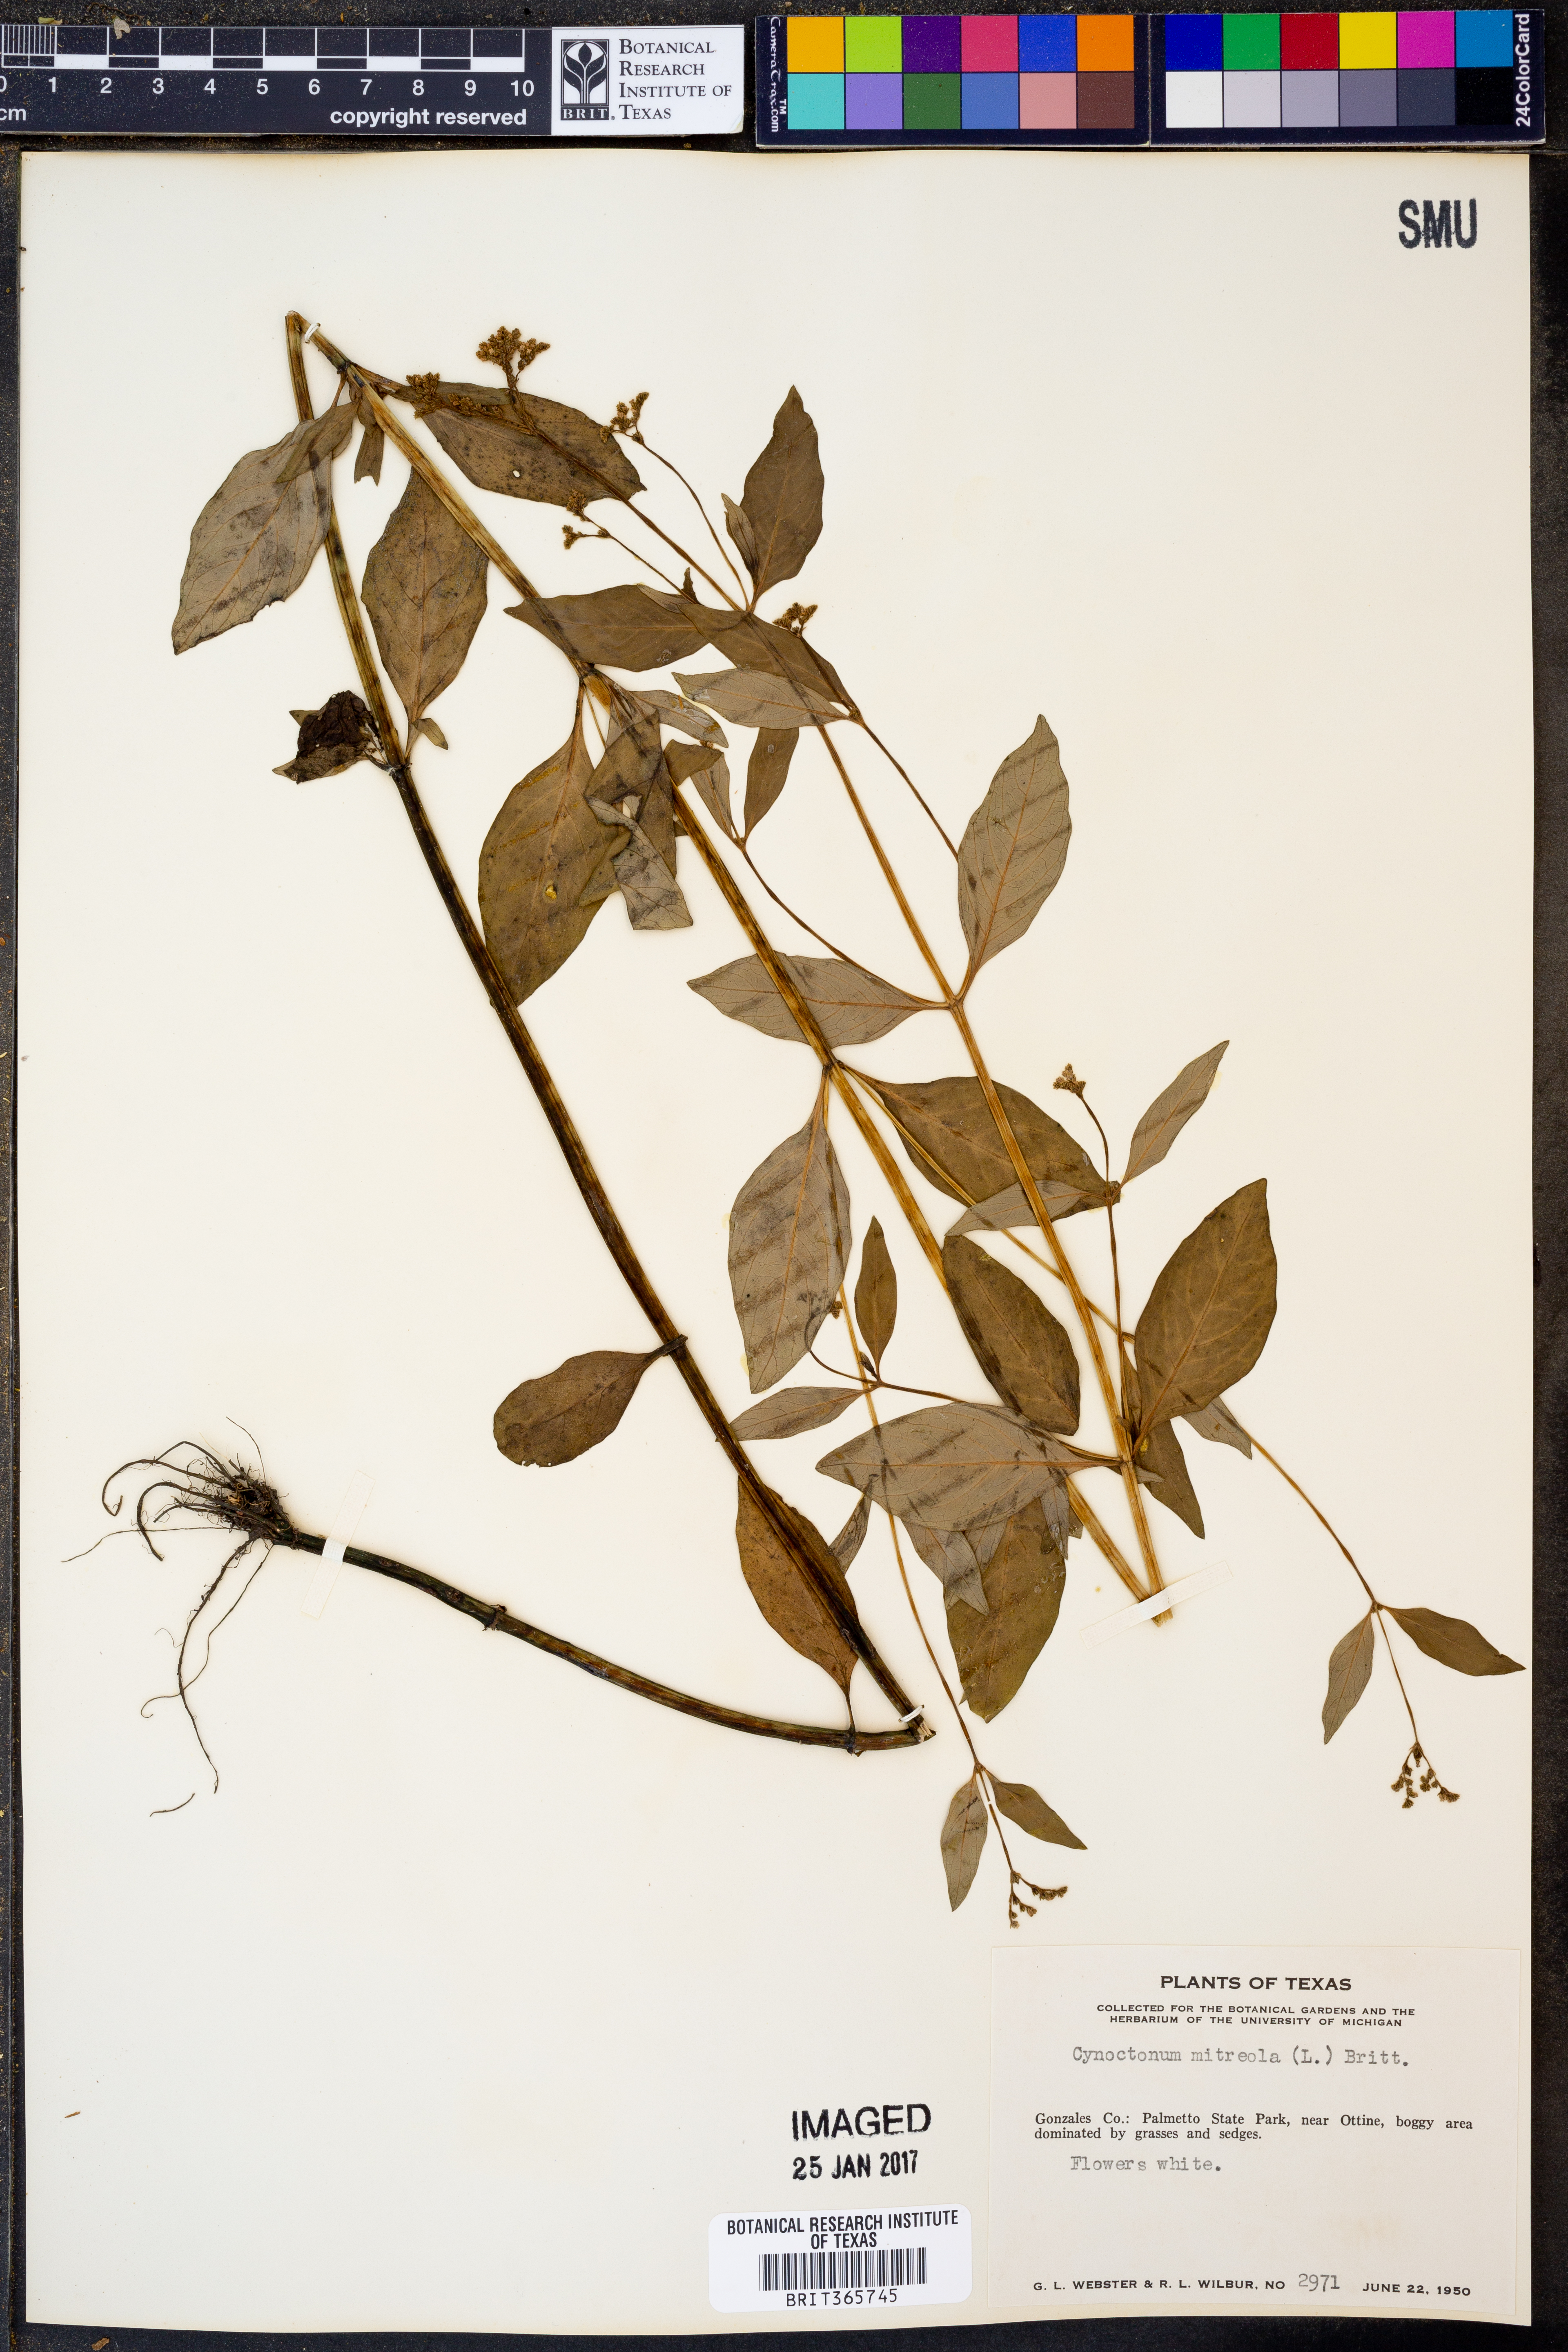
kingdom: Plantae
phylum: Tracheophyta
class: Magnoliopsida
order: Gentianales
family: Loganiaceae
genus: Mitreola
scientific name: Mitreola petiolata
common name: Lax hornpod
